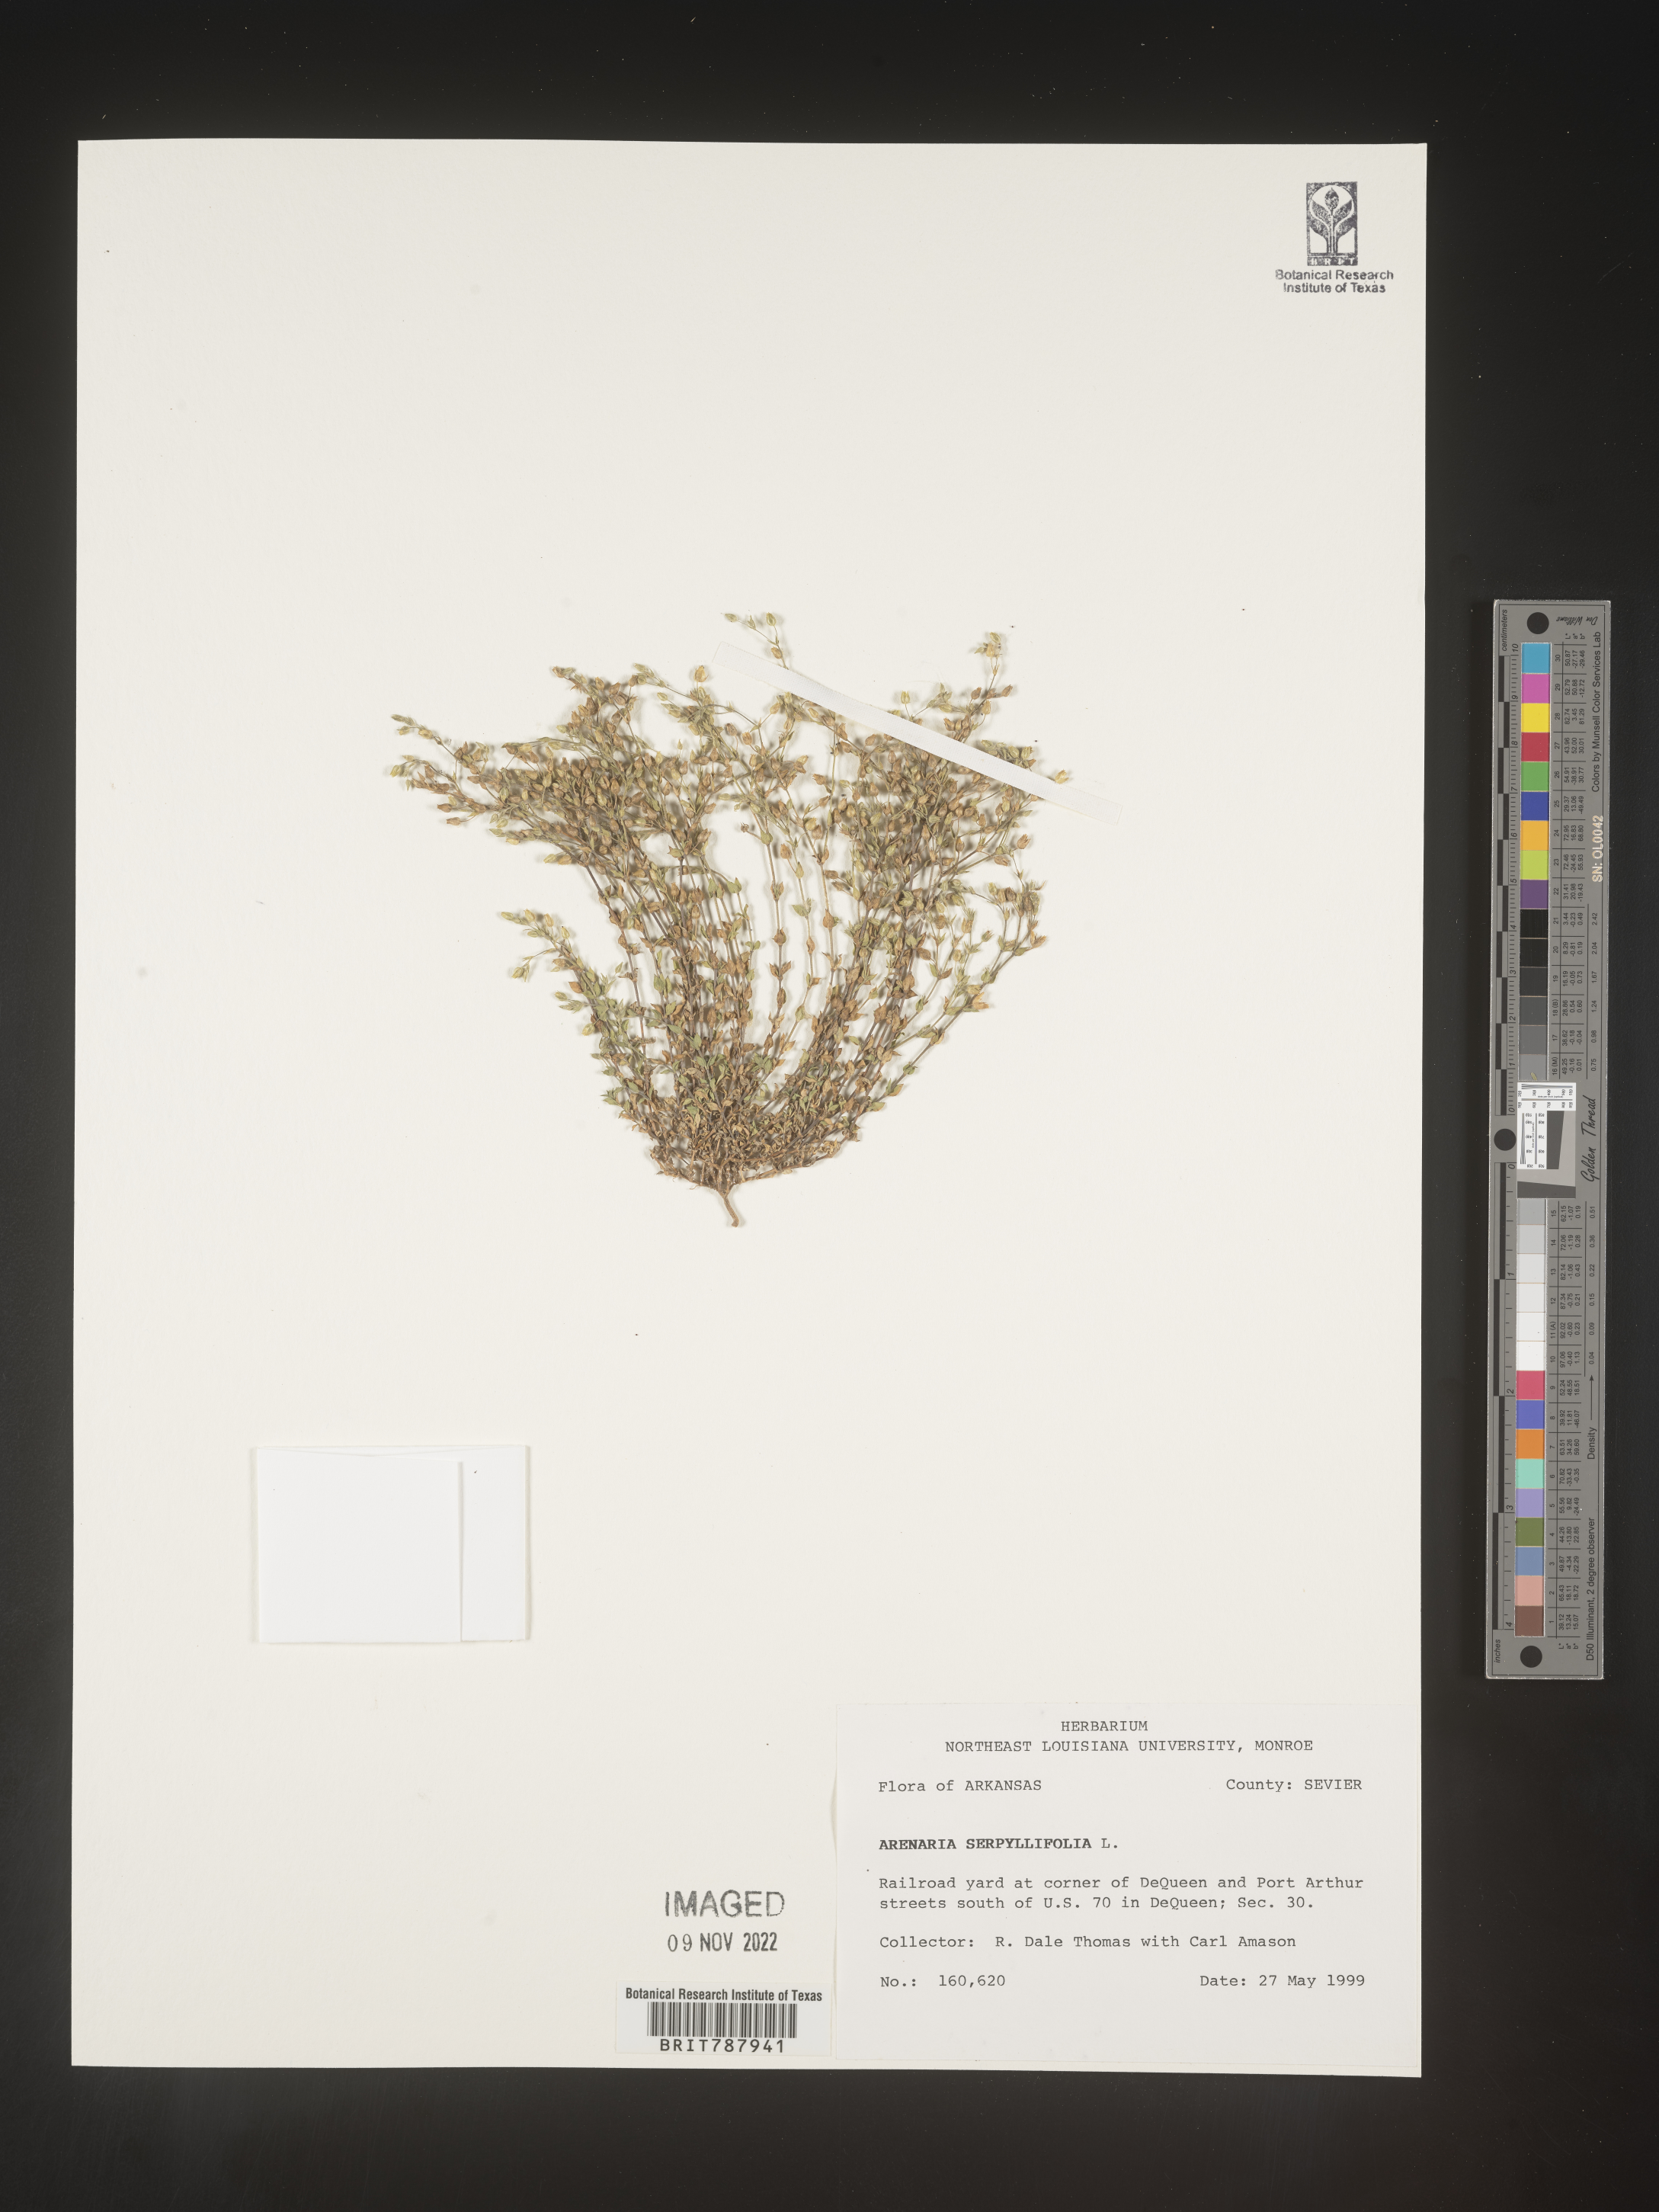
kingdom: Plantae
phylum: Tracheophyta
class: Magnoliopsida
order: Caryophyllales
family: Caryophyllaceae
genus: Arenaria
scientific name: Arenaria serpyllifolia
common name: Thyme-leaved sandwort
